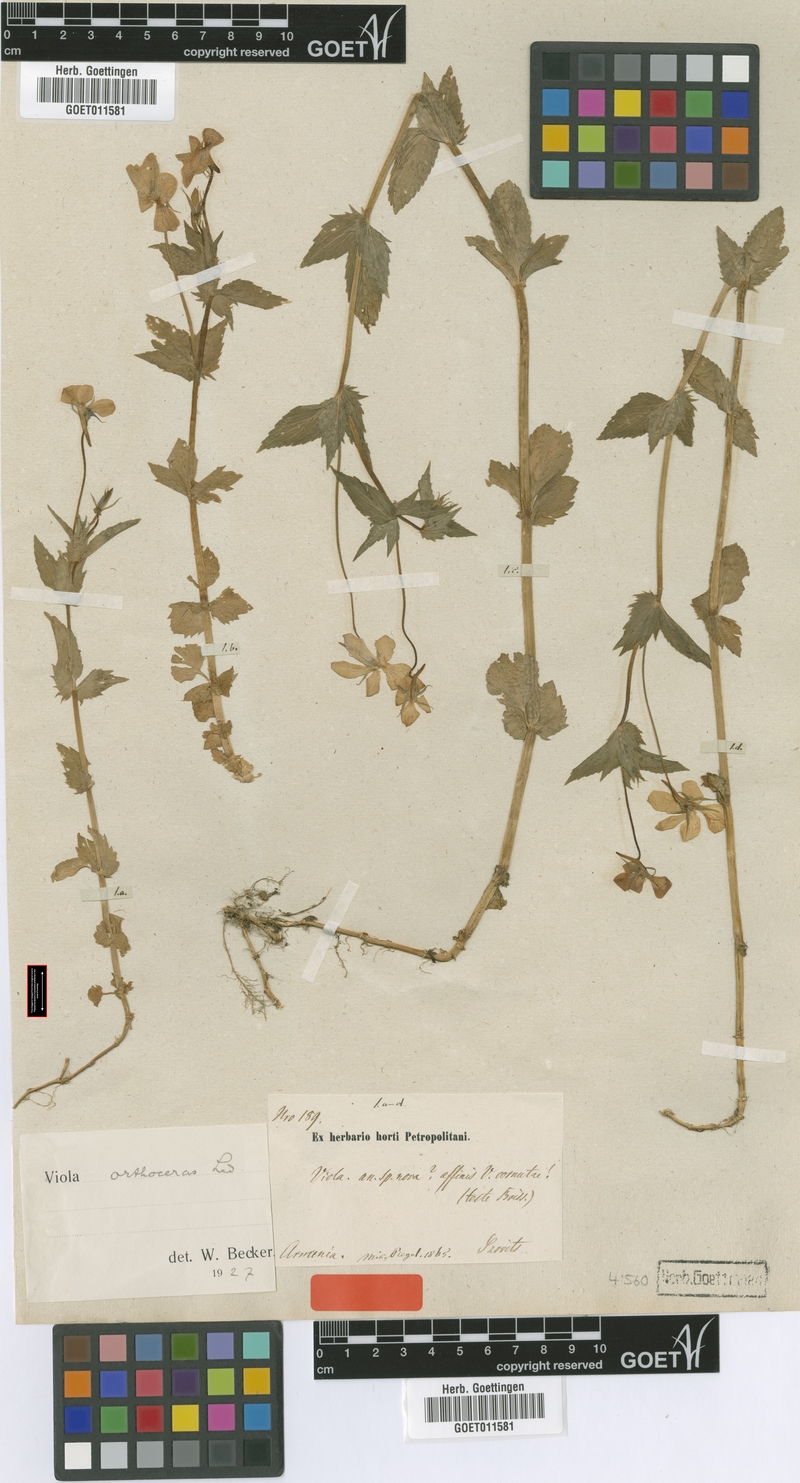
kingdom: Plantae
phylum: Tracheophyta
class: Magnoliopsida
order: Malpighiales
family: Violaceae
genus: Viola
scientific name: Viola orthoceras
